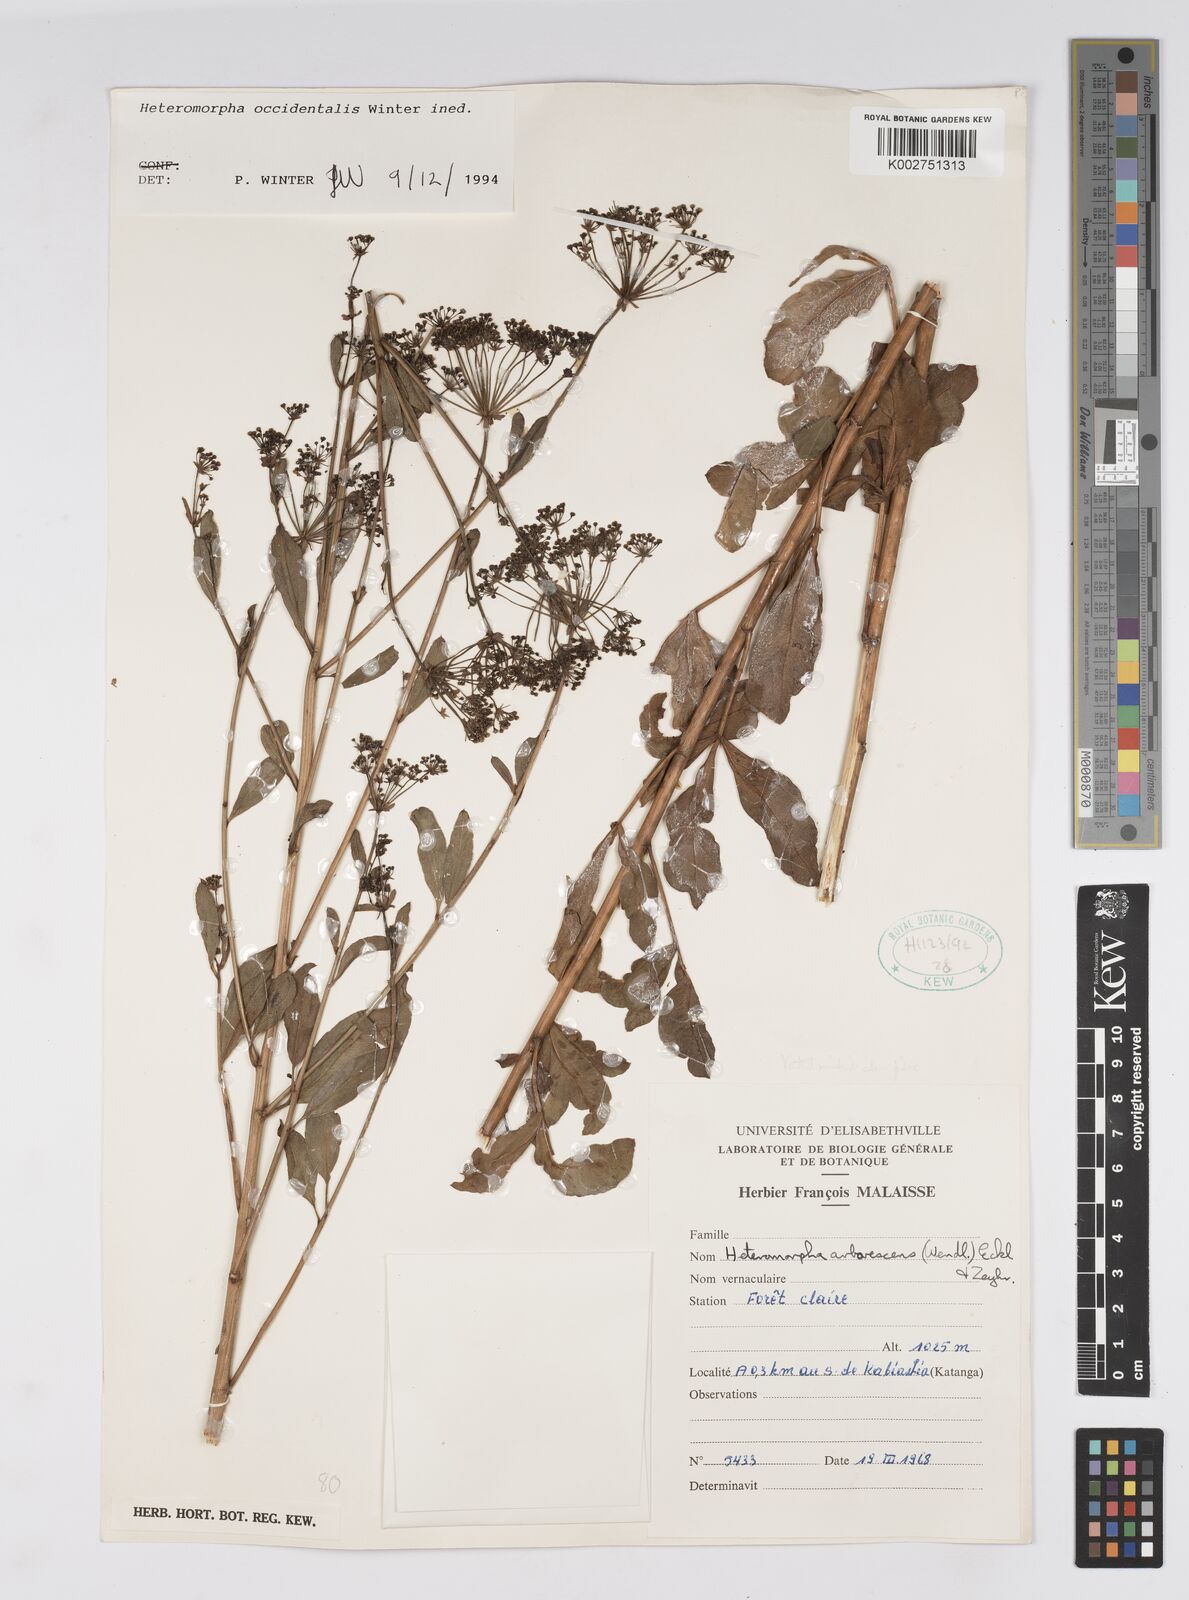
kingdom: Plantae
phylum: Tracheophyta
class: Magnoliopsida
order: Apiales
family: Apiaceae
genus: Heteromorpha
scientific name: Heteromorpha occidentalis
